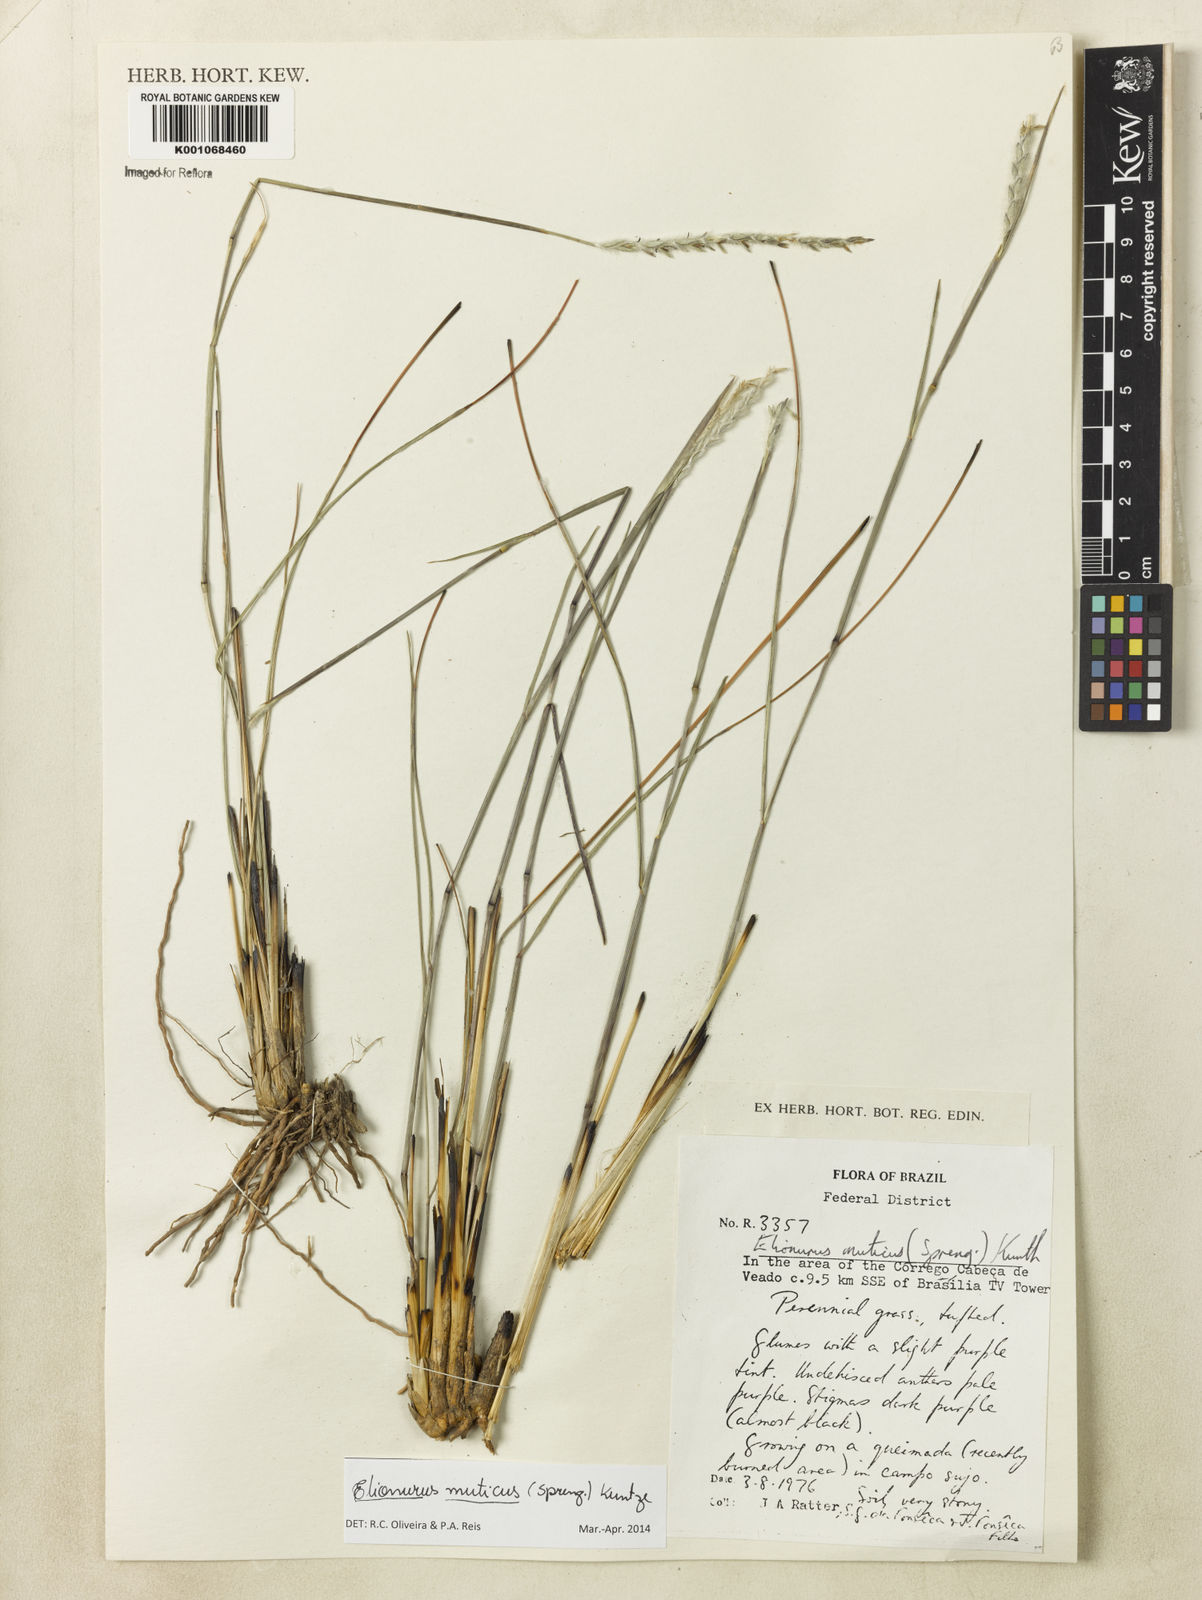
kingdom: Plantae
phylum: Tracheophyta
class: Liliopsida
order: Poales
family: Poaceae
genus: Elionurus
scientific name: Elionurus muticus
